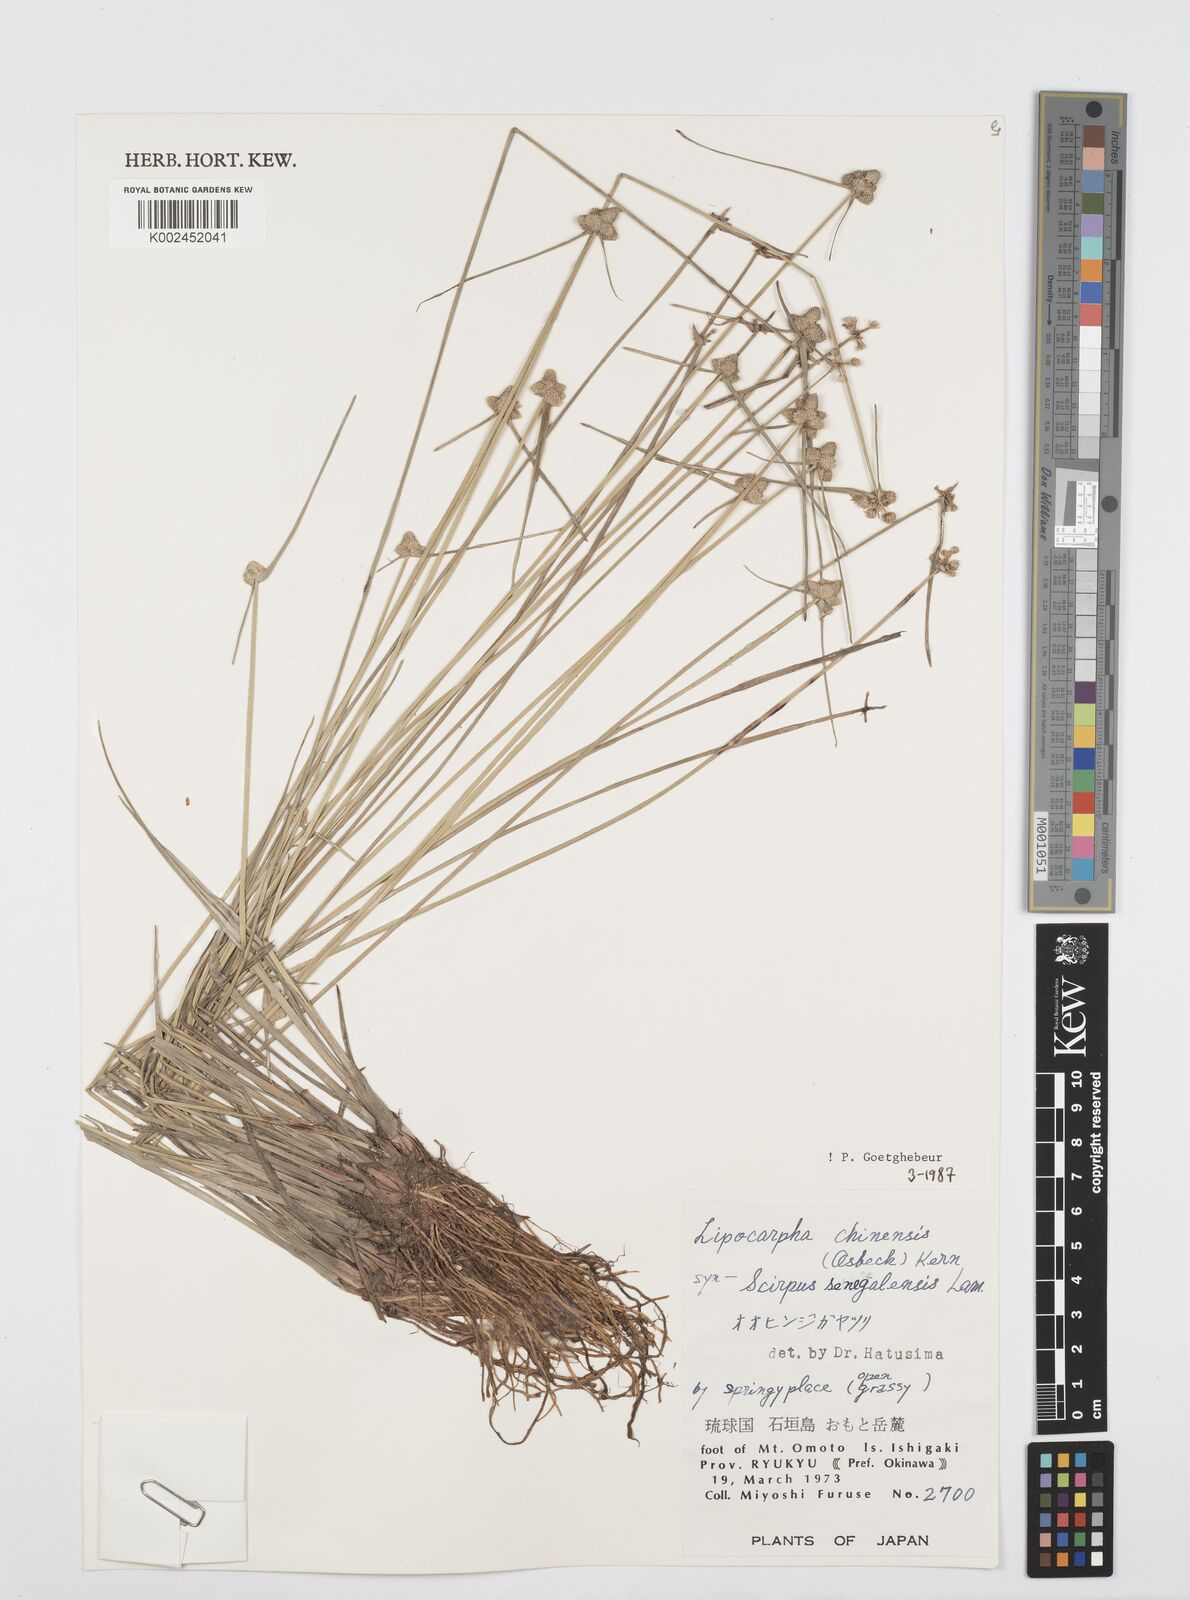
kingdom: Plantae
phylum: Tracheophyta
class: Liliopsida
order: Poales
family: Cyperaceae
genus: Cyperus
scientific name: Cyperus albescens
